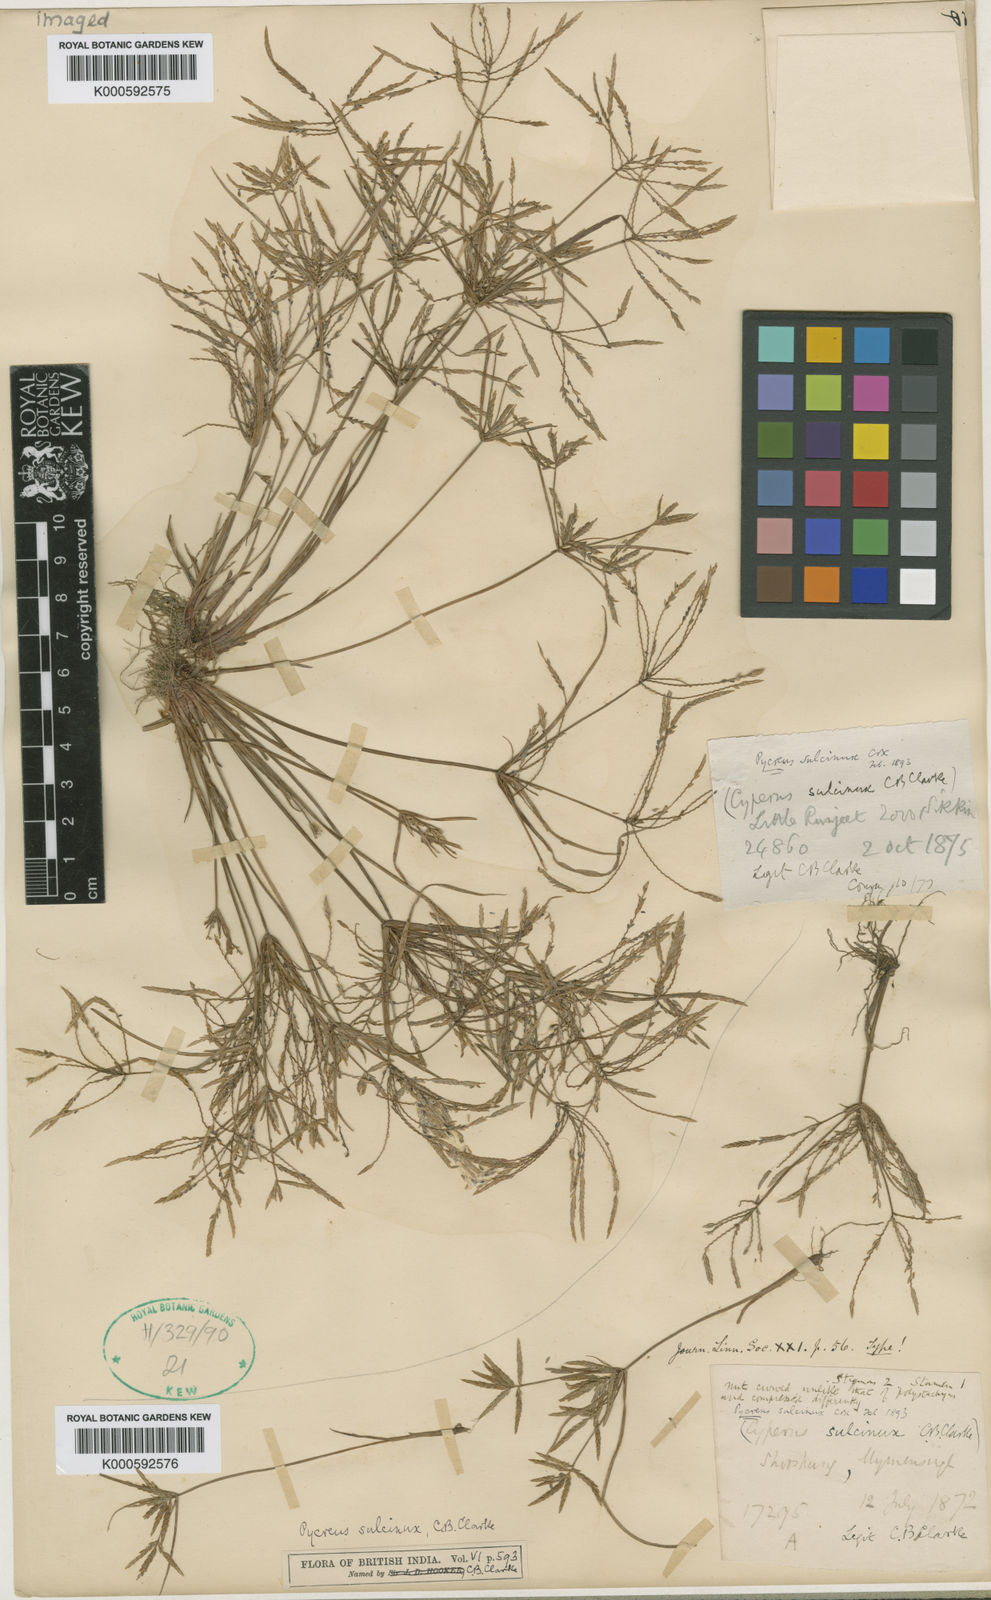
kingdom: Plantae
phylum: Tracheophyta
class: Liliopsida
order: Poales
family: Cyperaceae
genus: Cyperus
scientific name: Cyperus sulcinux
